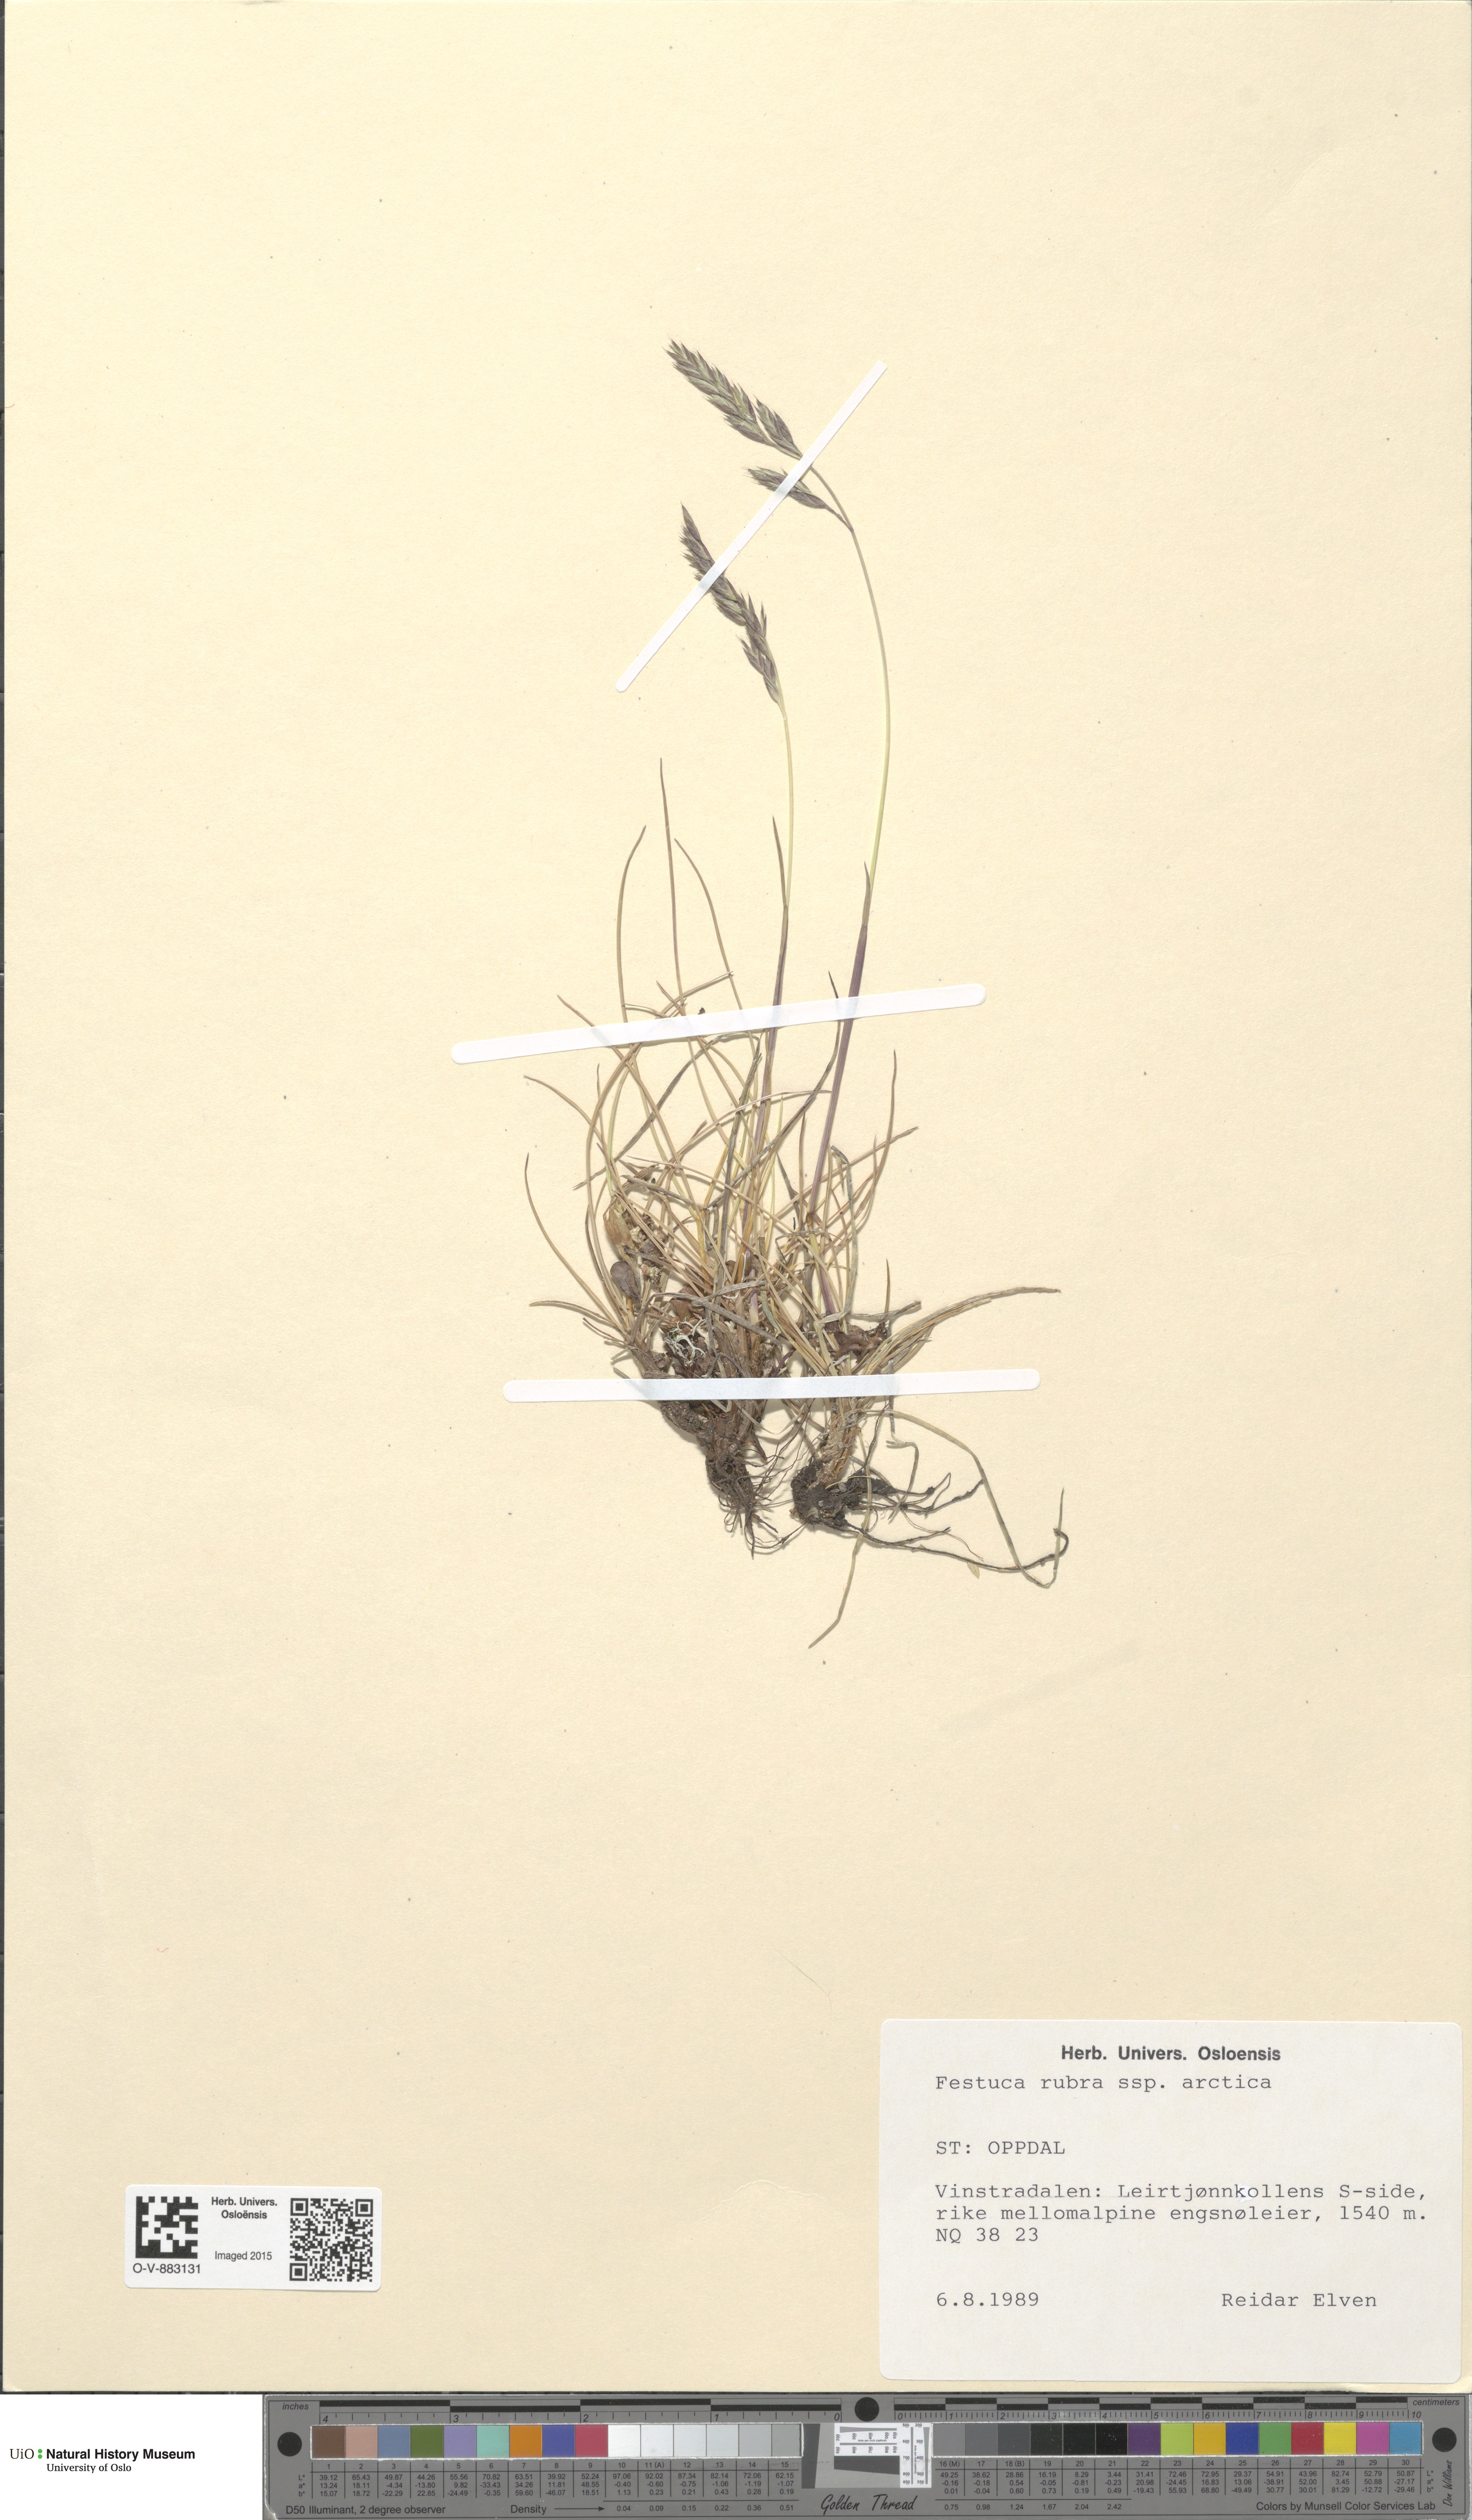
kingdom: Plantae
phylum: Tracheophyta
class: Liliopsida
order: Poales
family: Poaceae
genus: Festuca
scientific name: Festuca richardsonii
